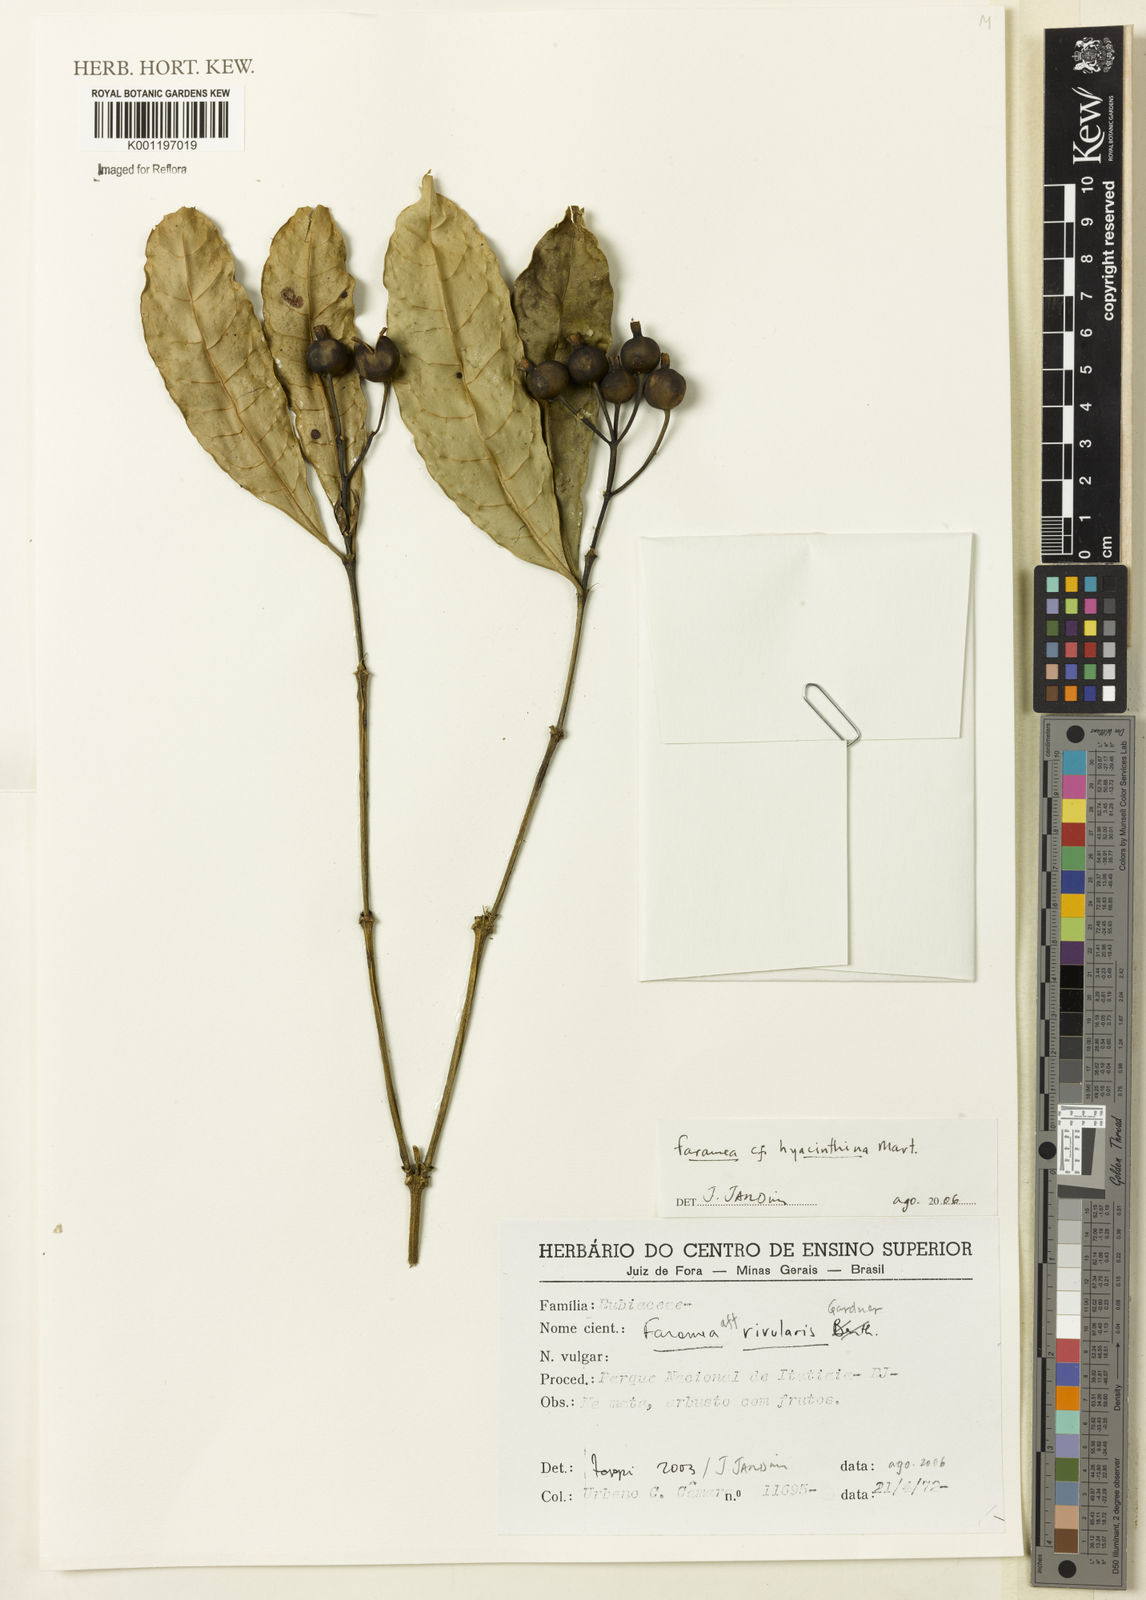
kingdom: Plantae
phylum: Tracheophyta
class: Magnoliopsida
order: Gentianales
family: Rubiaceae
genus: Faramea
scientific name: Faramea hyacinthina
